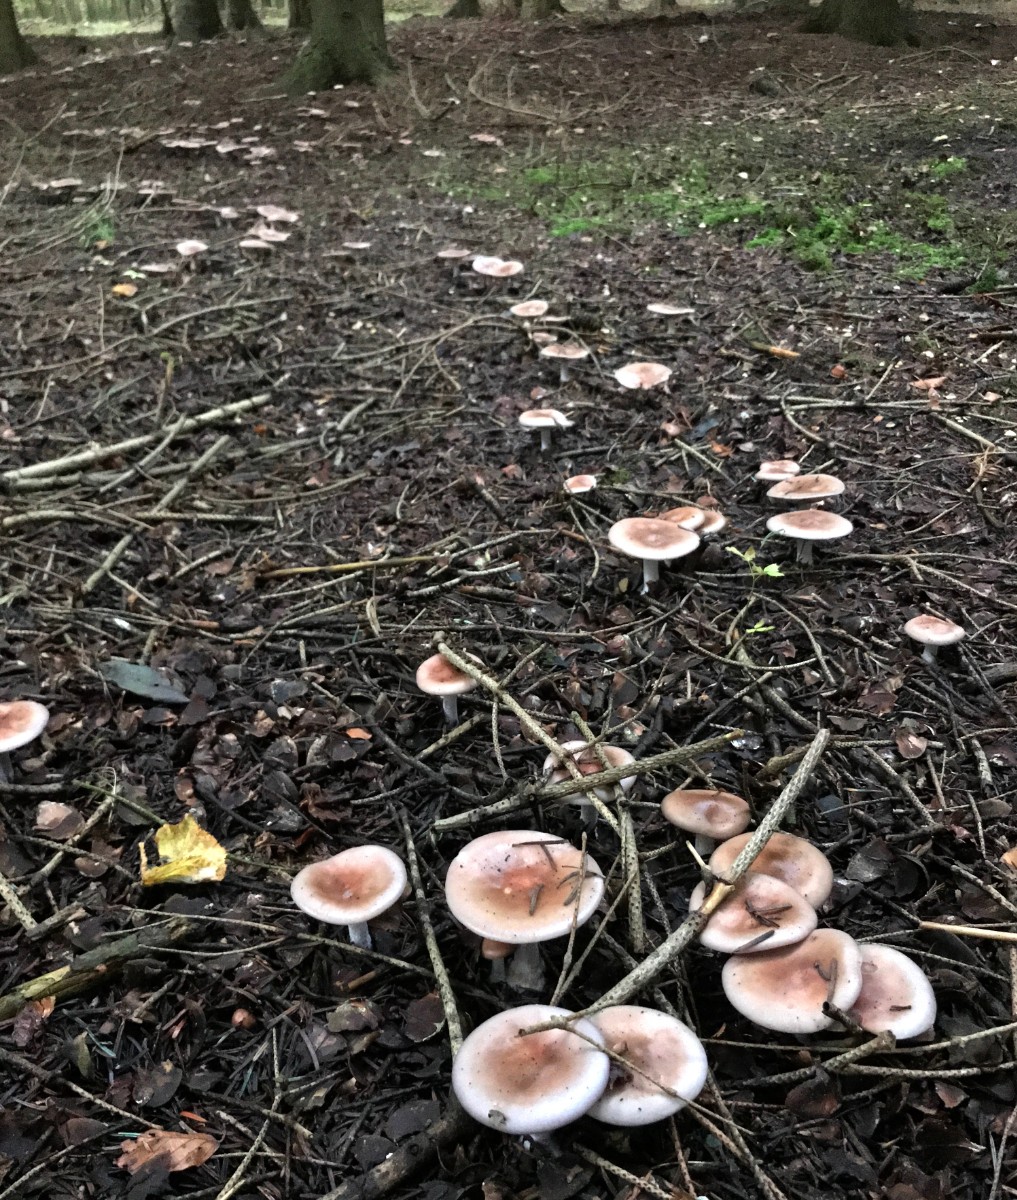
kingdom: Fungi
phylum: Basidiomycota
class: Agaricomycetes
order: Agaricales
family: Tricholomataceae
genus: Lepista
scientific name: Lepista nuda
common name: violet hekseringshat
